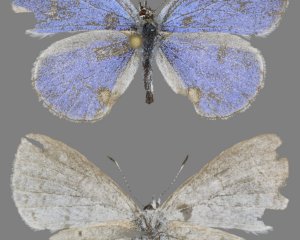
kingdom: Animalia
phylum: Arthropoda
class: Insecta
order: Lepidoptera
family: Lycaenidae
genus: Cyaniris
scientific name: Cyaniris neglecta
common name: Summer Azure
